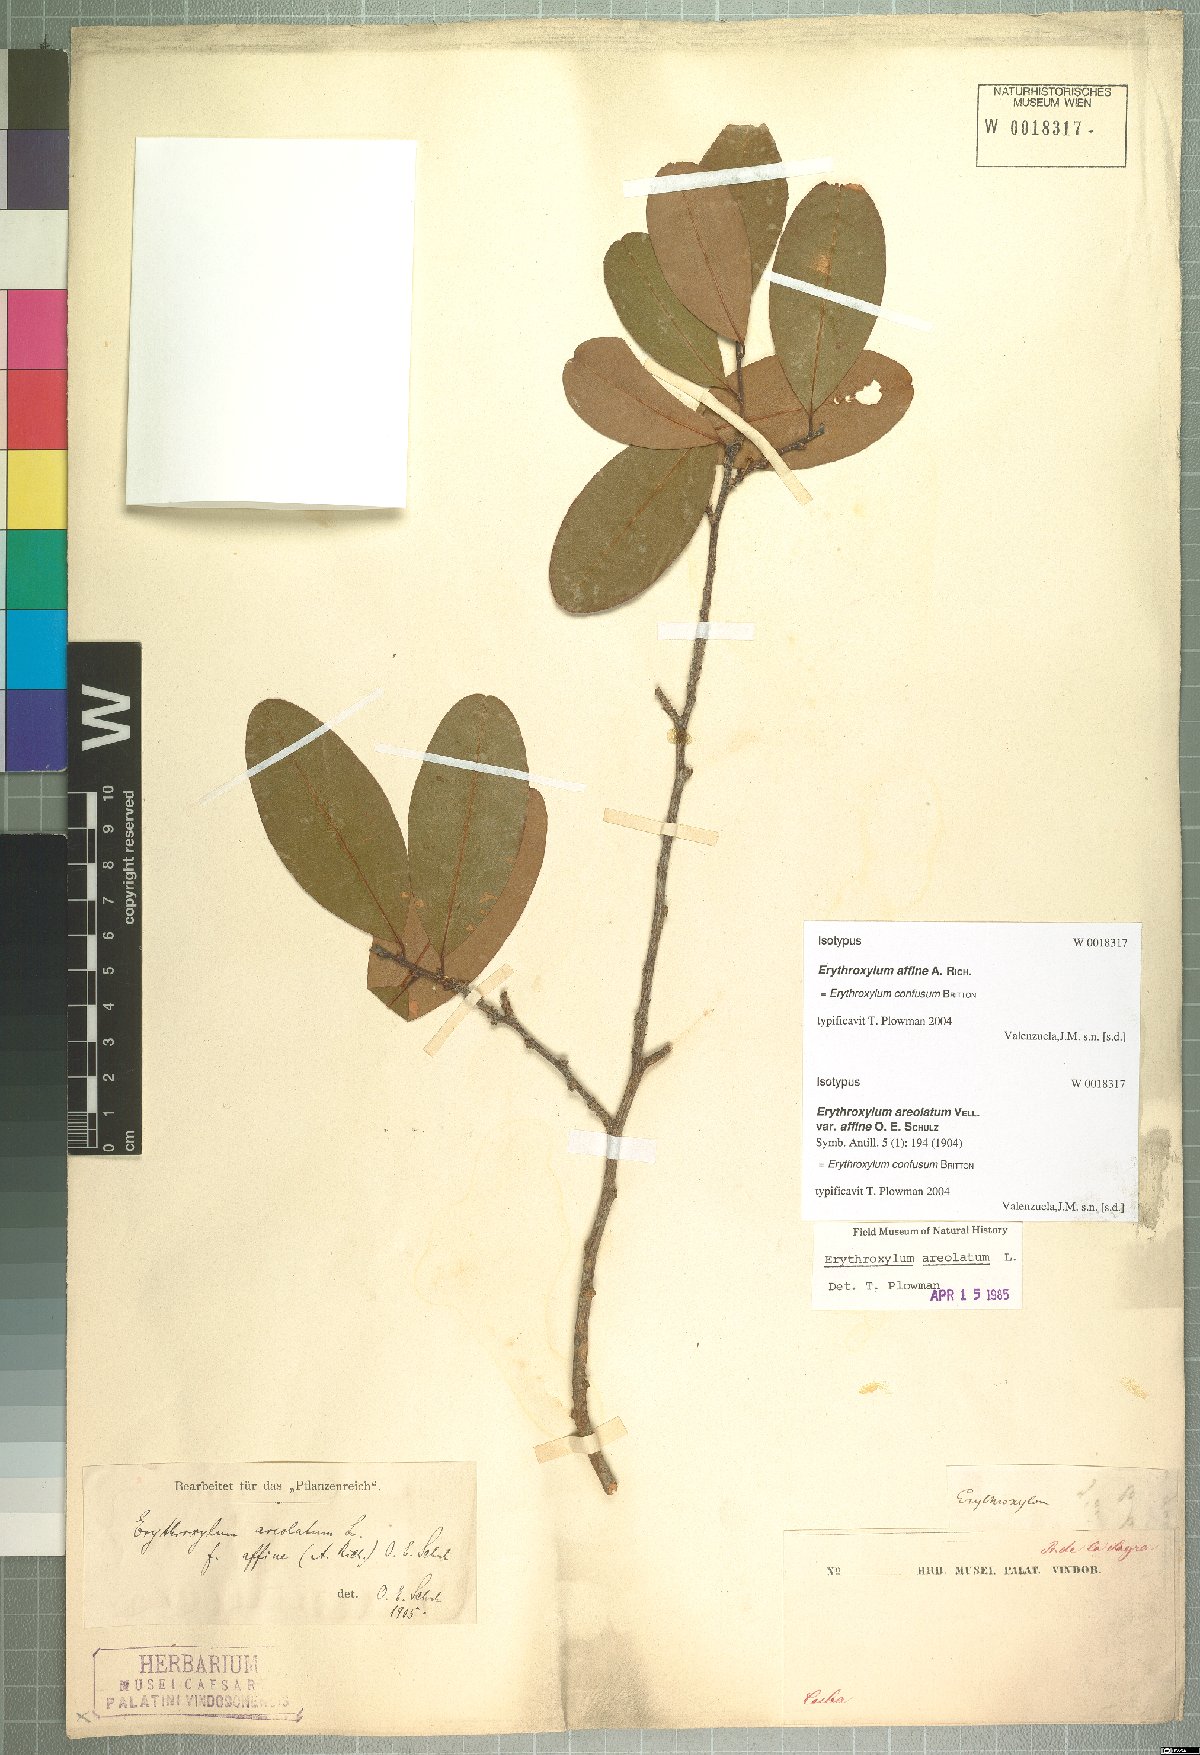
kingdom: Plantae
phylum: Tracheophyta
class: Magnoliopsida
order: Malpighiales
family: Erythroxylaceae
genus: Erythroxylum
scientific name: Erythroxylum confusum
